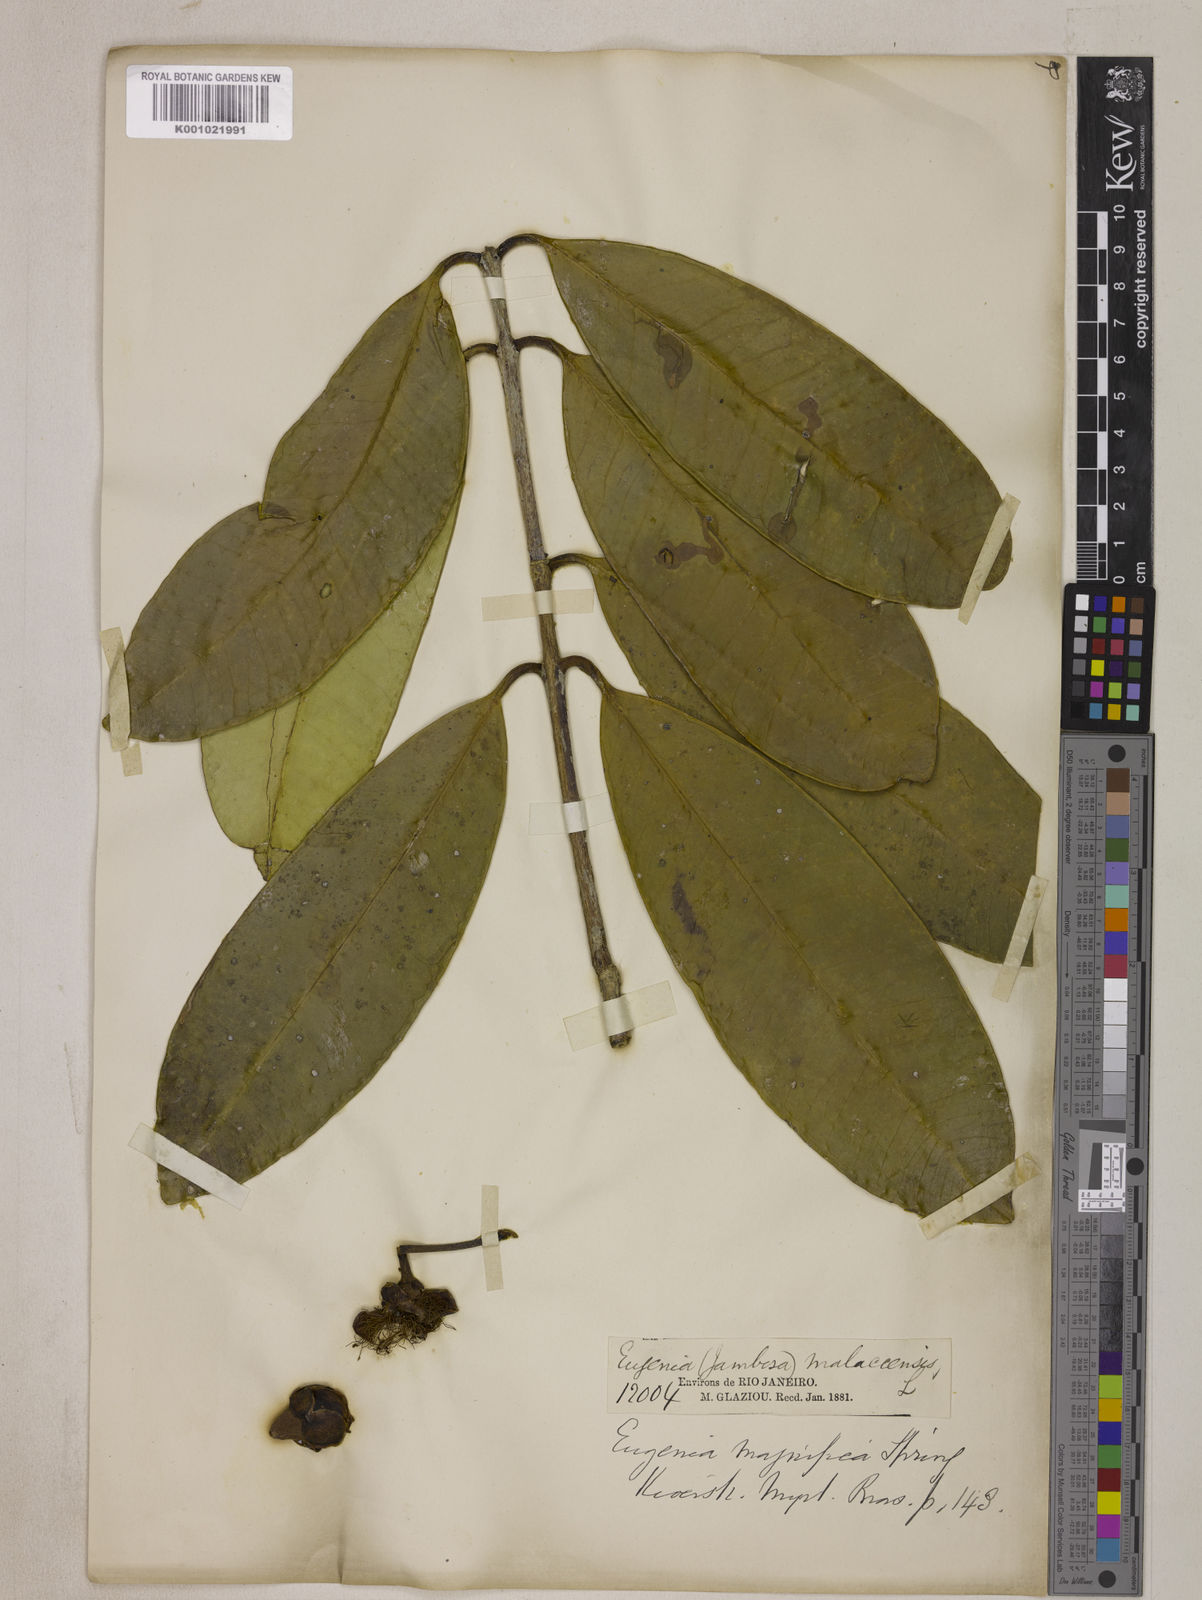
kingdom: Plantae
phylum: Tracheophyta
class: Magnoliopsida
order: Myrtales
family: Myrtaceae
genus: Eugenia
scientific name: Eugenia
